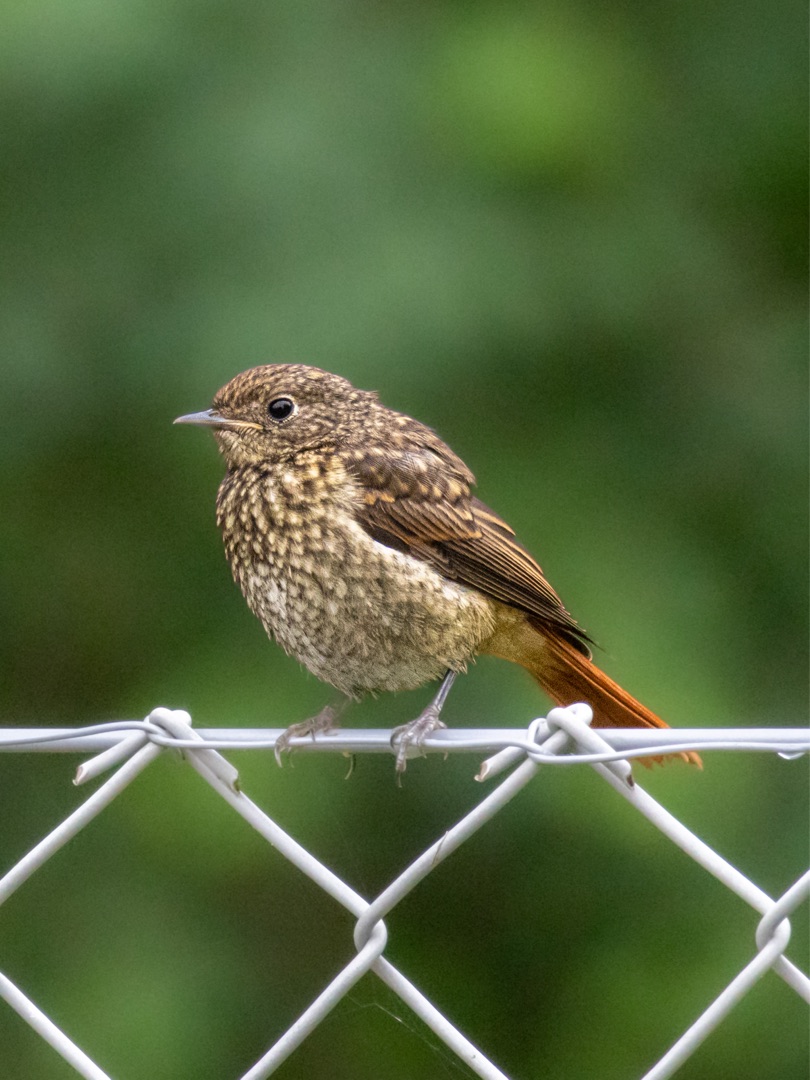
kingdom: Animalia
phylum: Chordata
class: Aves
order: Passeriformes
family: Muscicapidae
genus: Phoenicurus
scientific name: Phoenicurus phoenicurus
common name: Rødstjert
